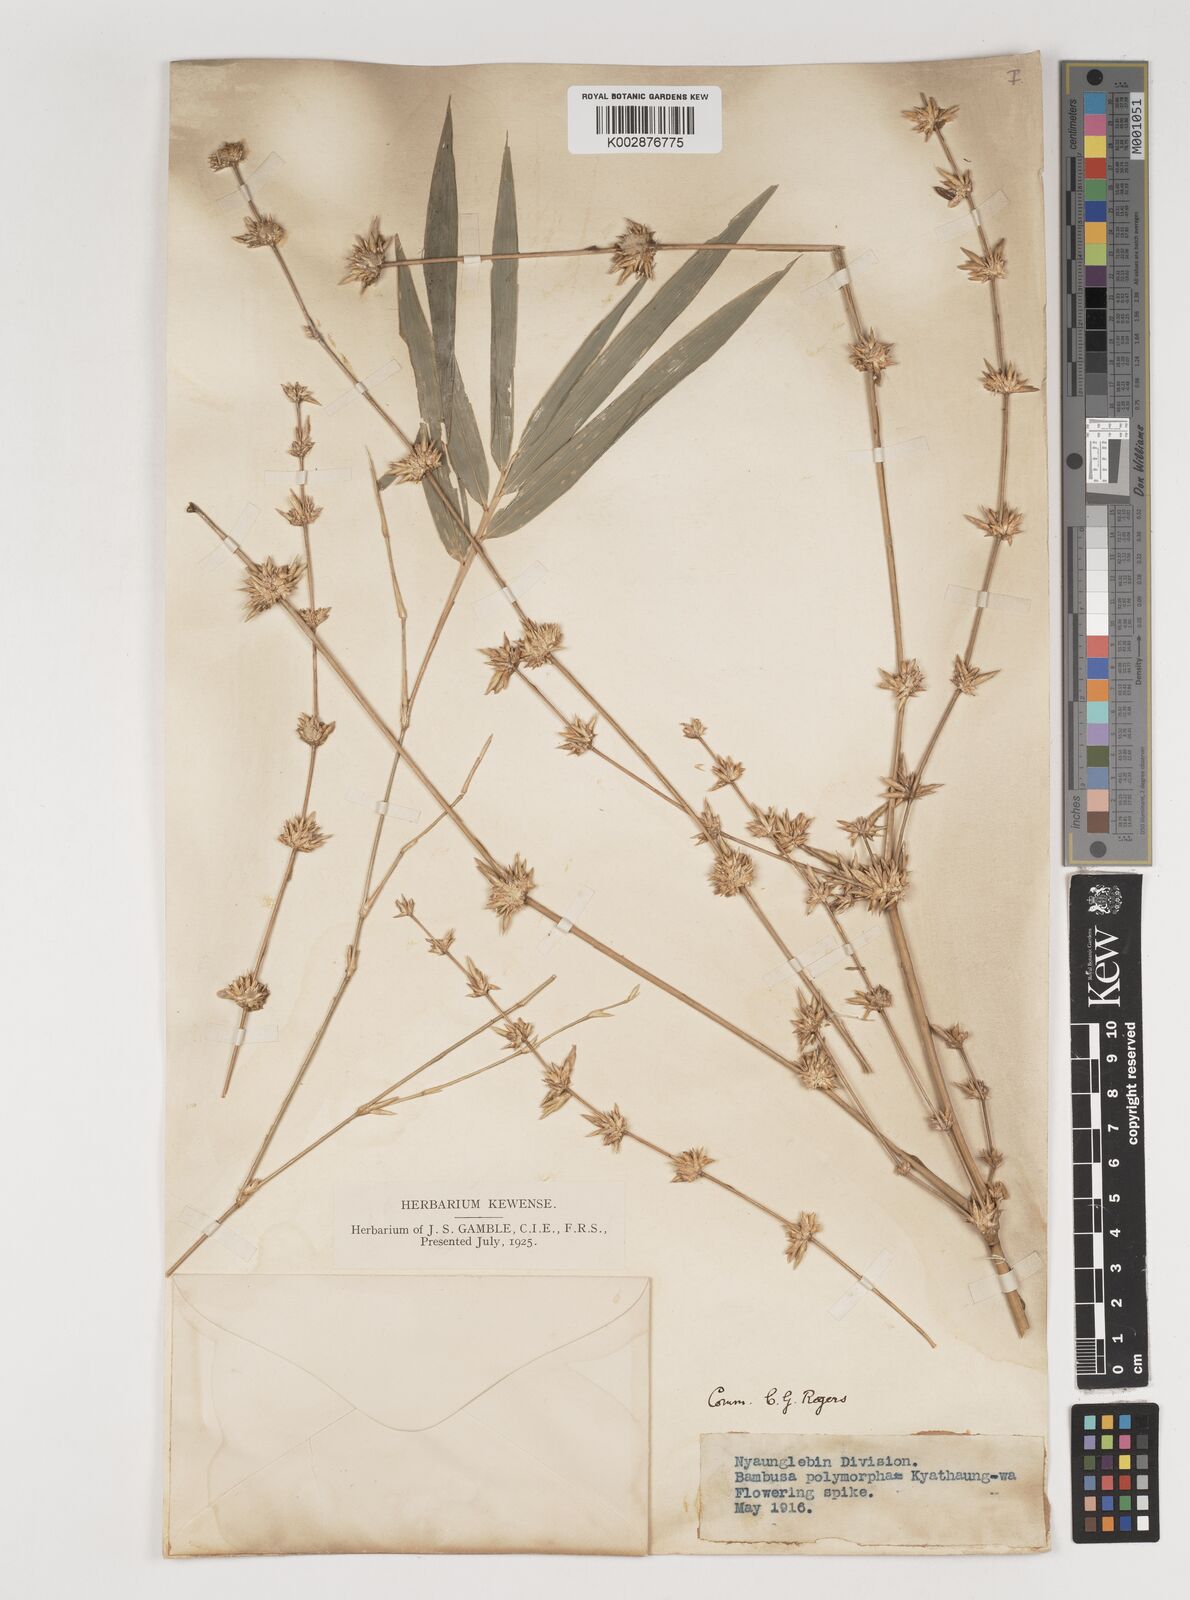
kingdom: Plantae
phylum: Tracheophyta
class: Liliopsida
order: Poales
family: Poaceae
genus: Bambusa
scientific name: Bambusa polymorpha
